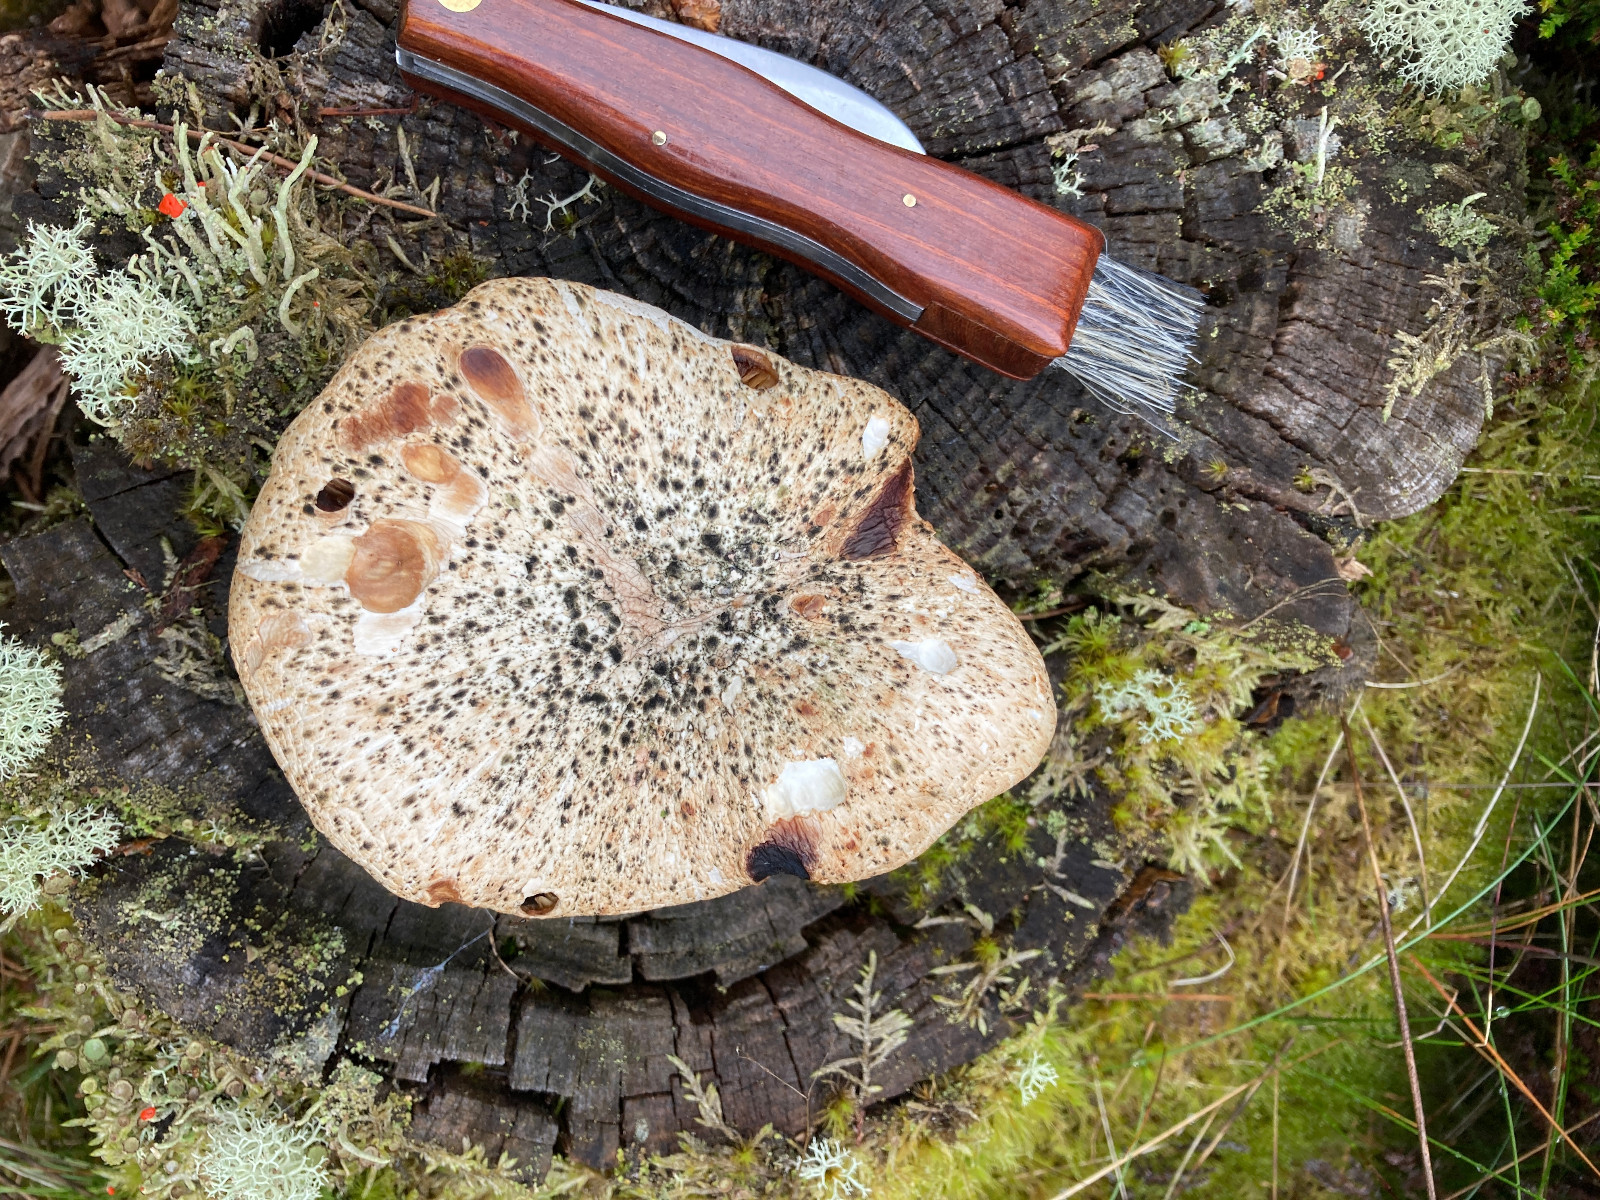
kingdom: Fungi
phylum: Basidiomycota
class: Agaricomycetes
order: Gloeophyllales
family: Gloeophyllaceae
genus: Neolentinus
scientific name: Neolentinus lepideus
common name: skællet sejhat
